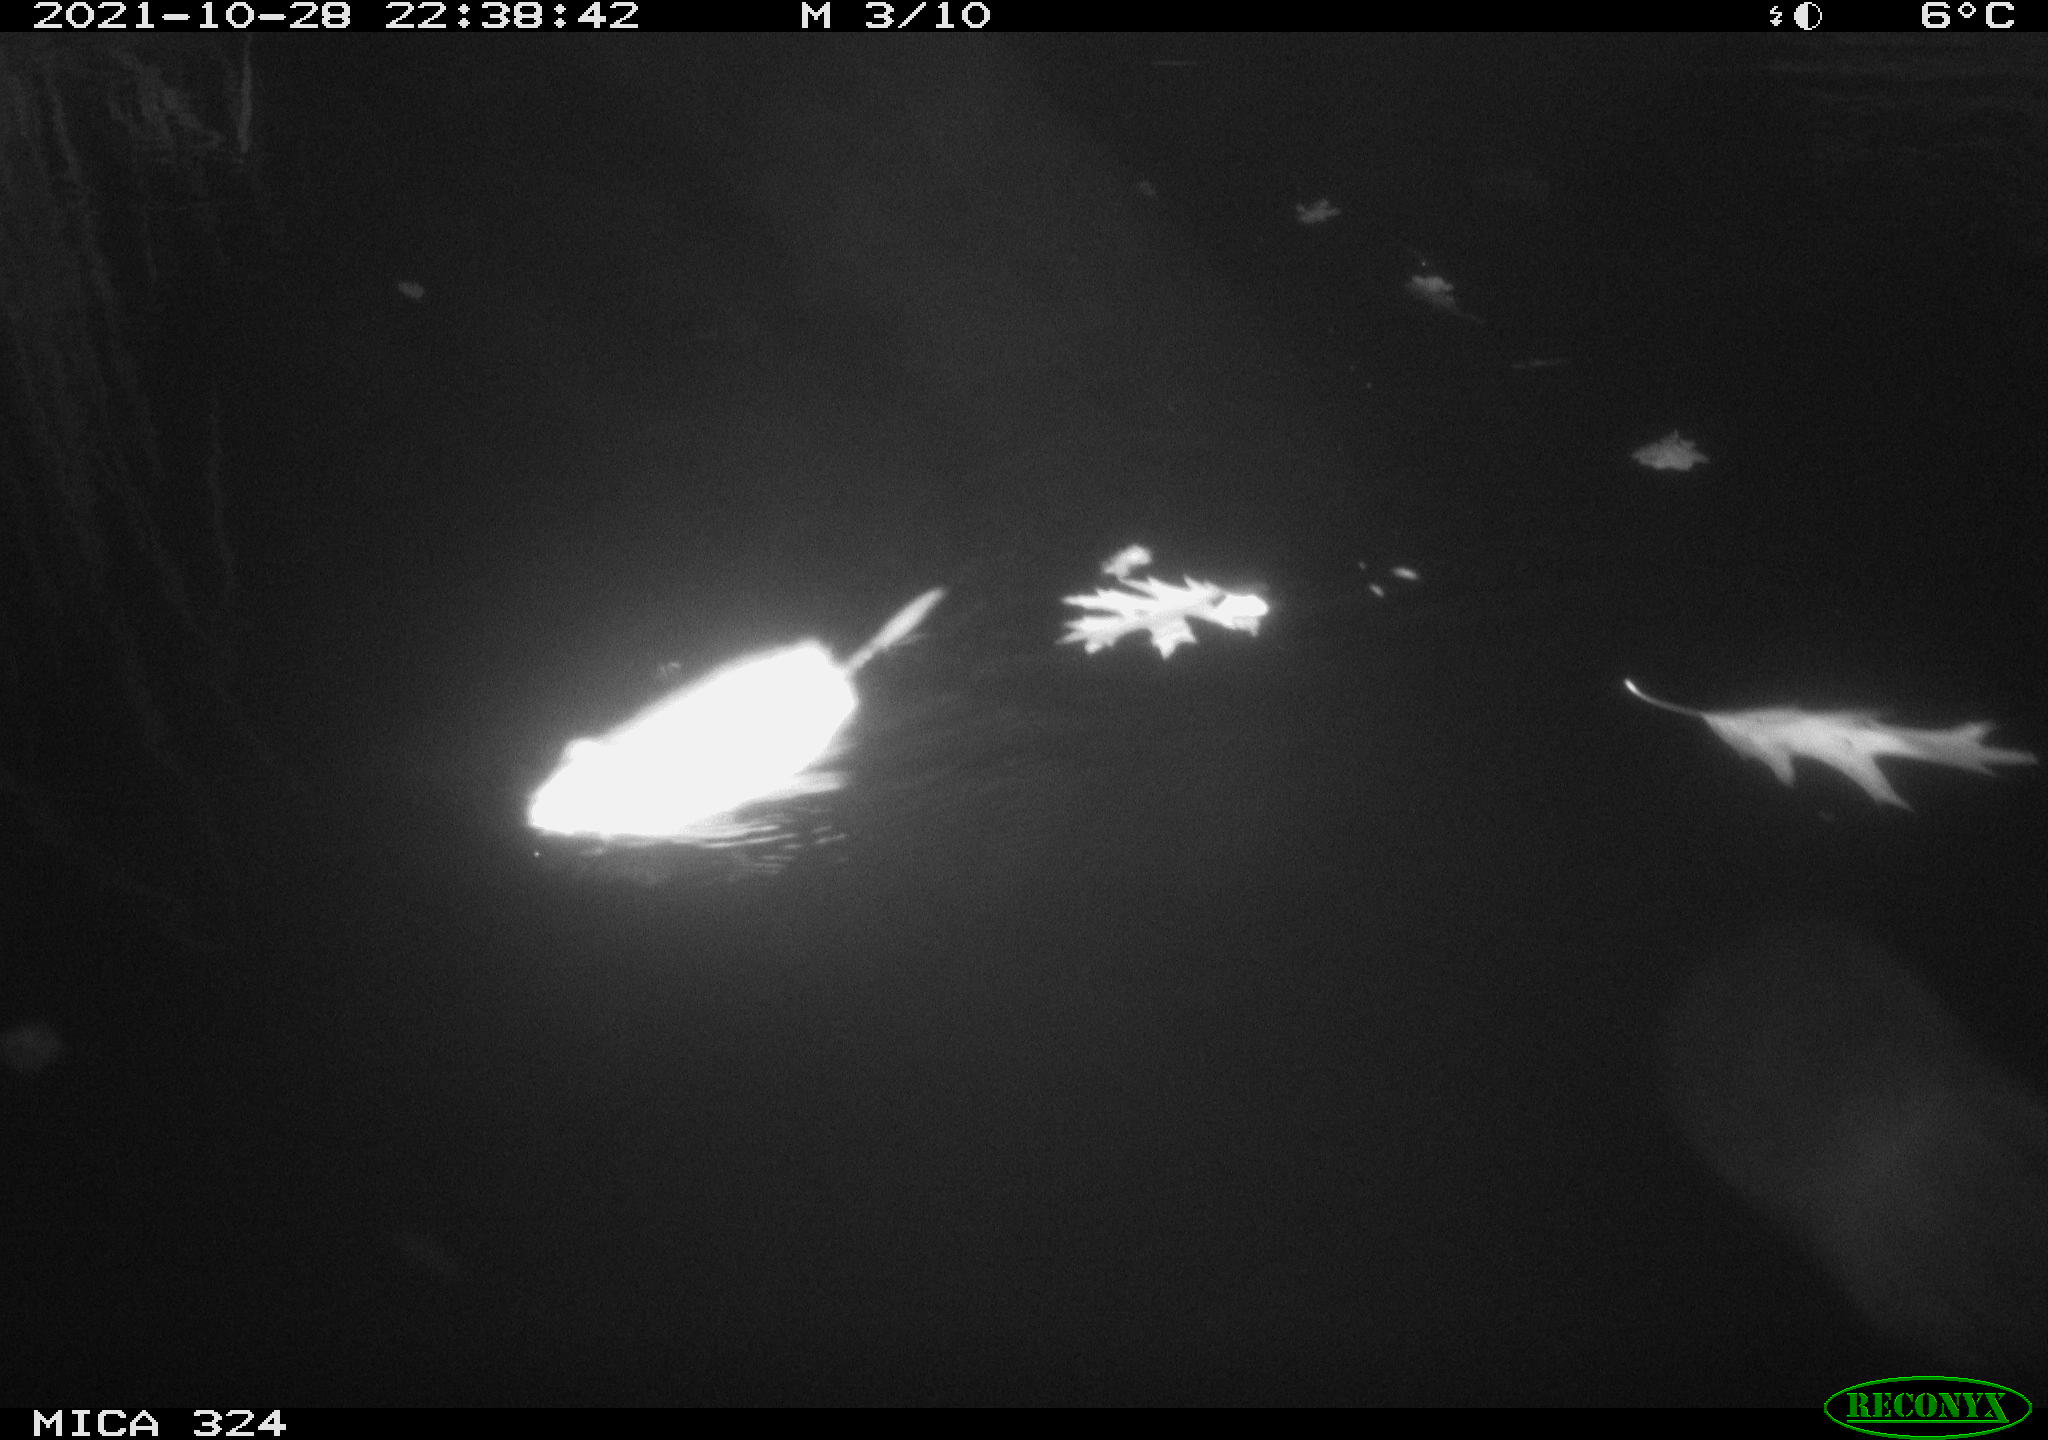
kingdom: Animalia
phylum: Chordata
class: Mammalia
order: Rodentia
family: Cricetidae
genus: Ondatra
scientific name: Ondatra zibethicus
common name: Muskrat
